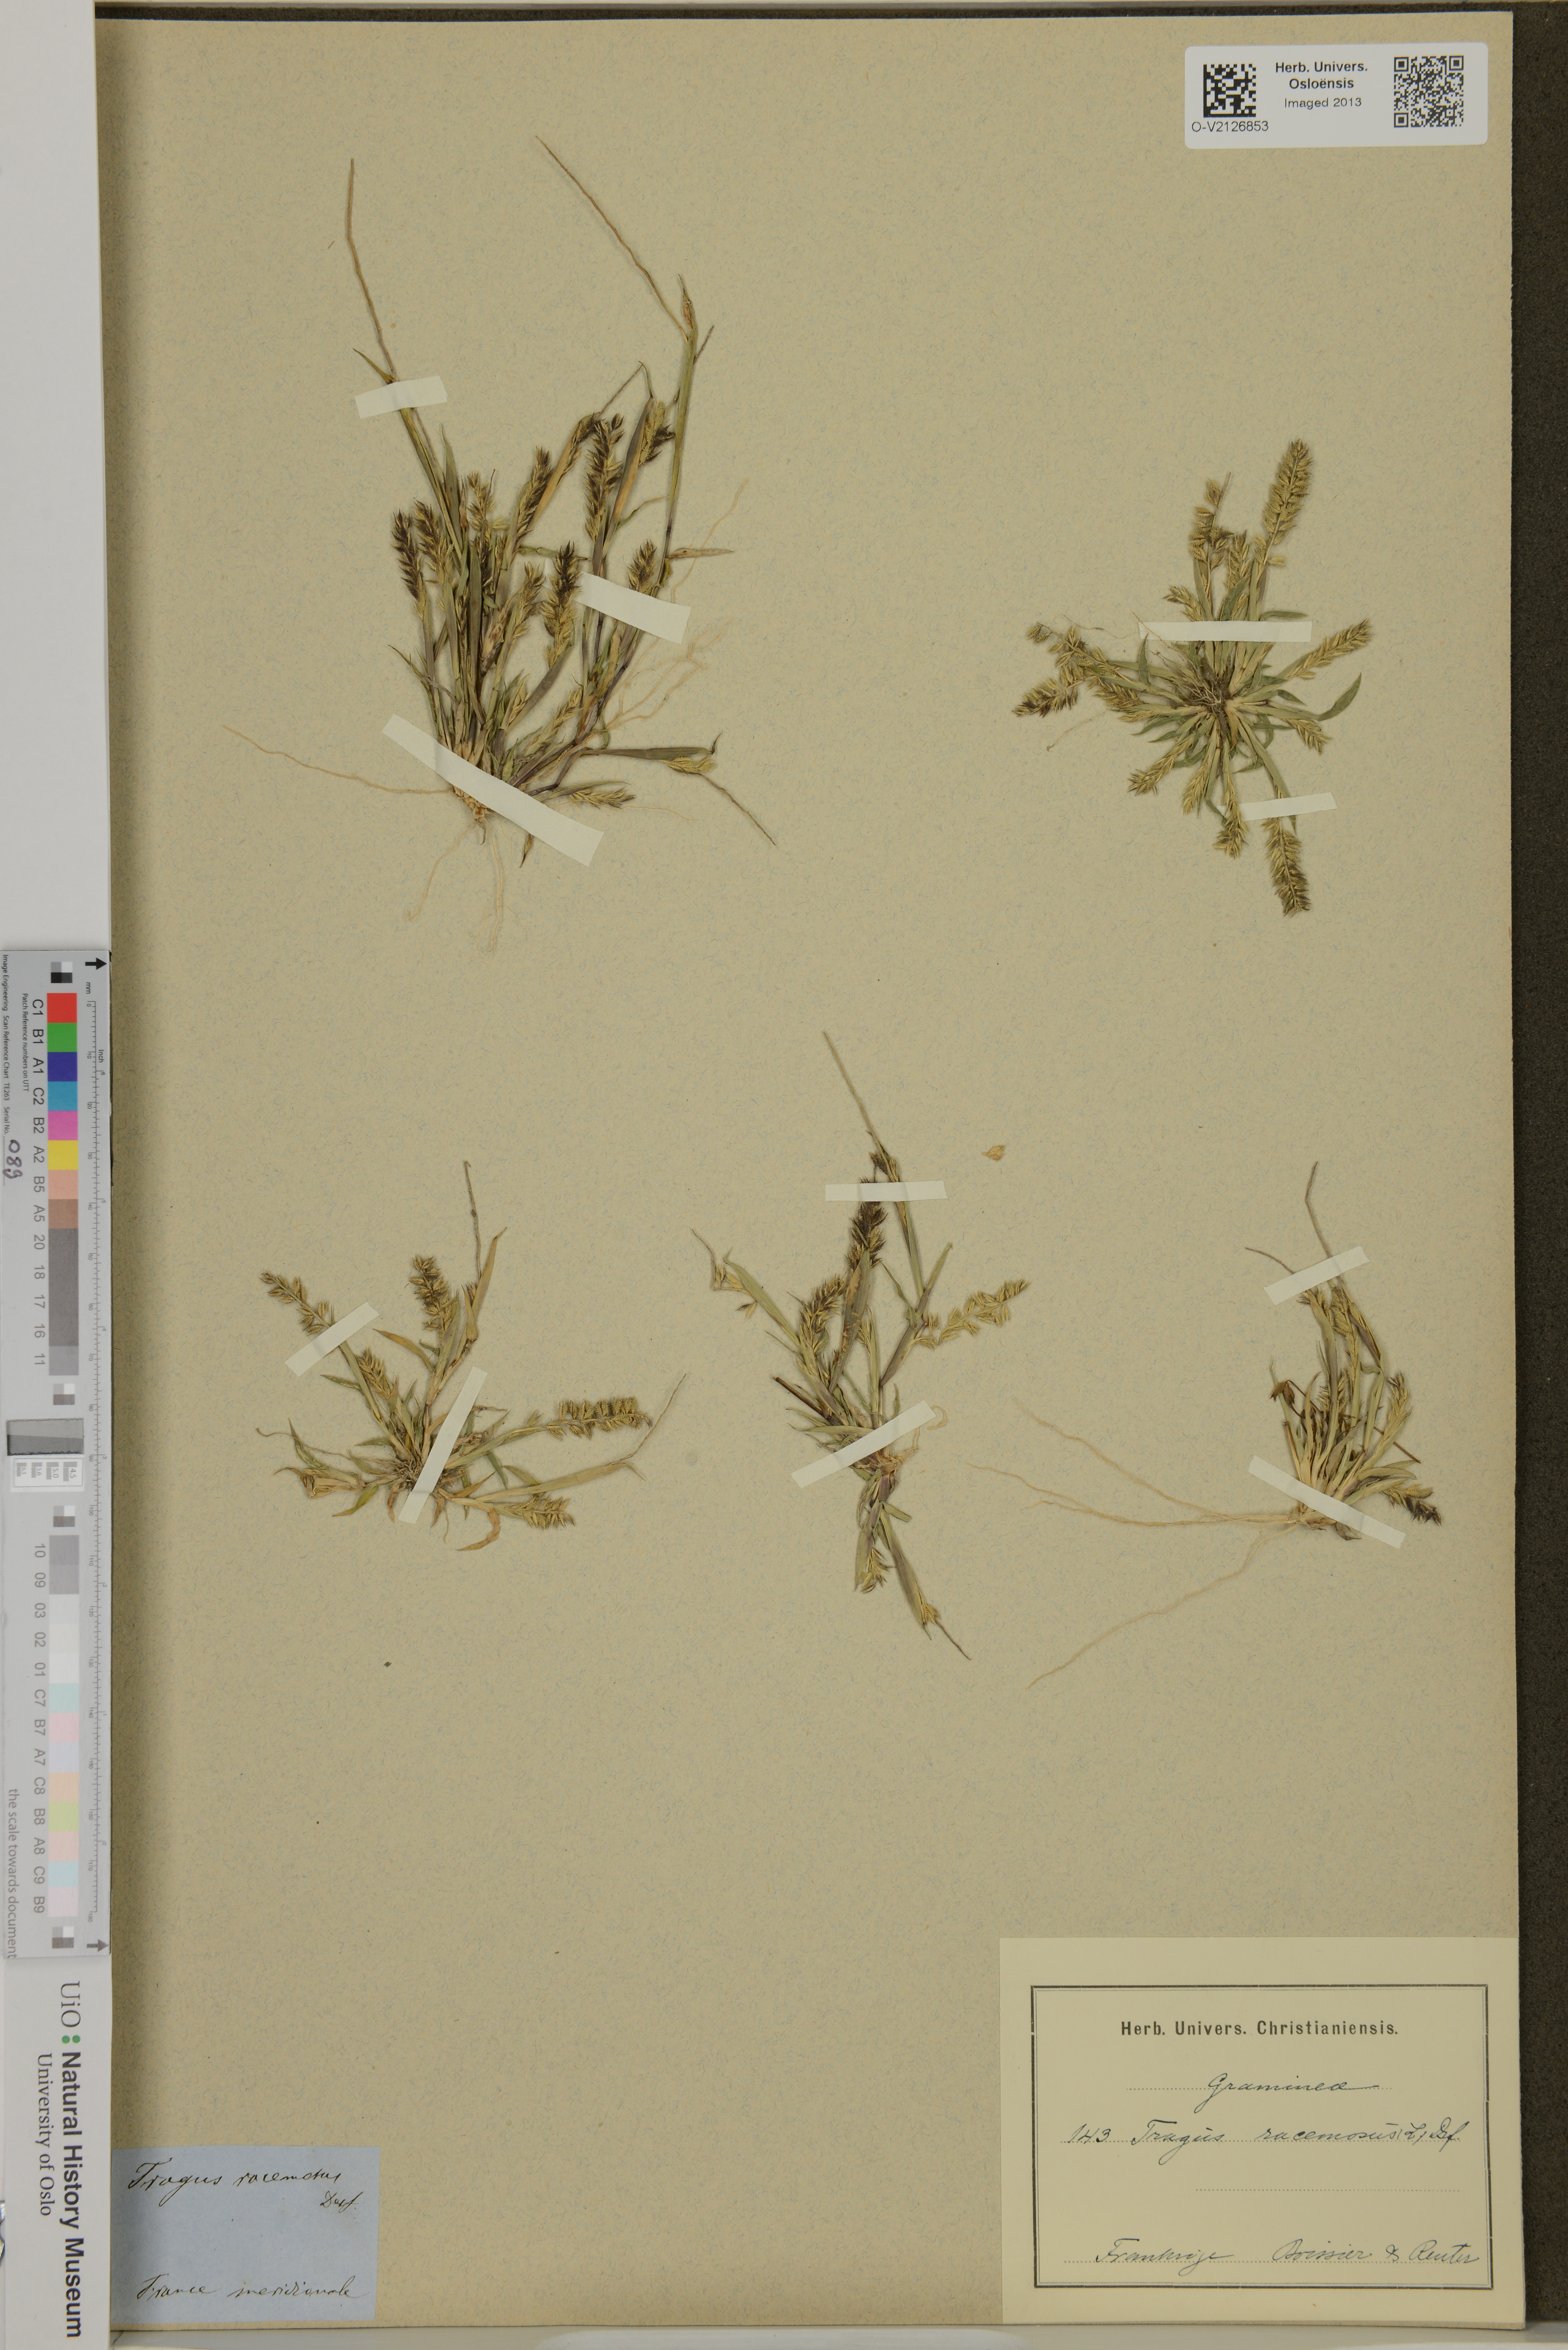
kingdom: Plantae
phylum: Tracheophyta
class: Liliopsida
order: Poales
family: Poaceae
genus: Tragus
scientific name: Tragus racemosus
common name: European bur-grass
